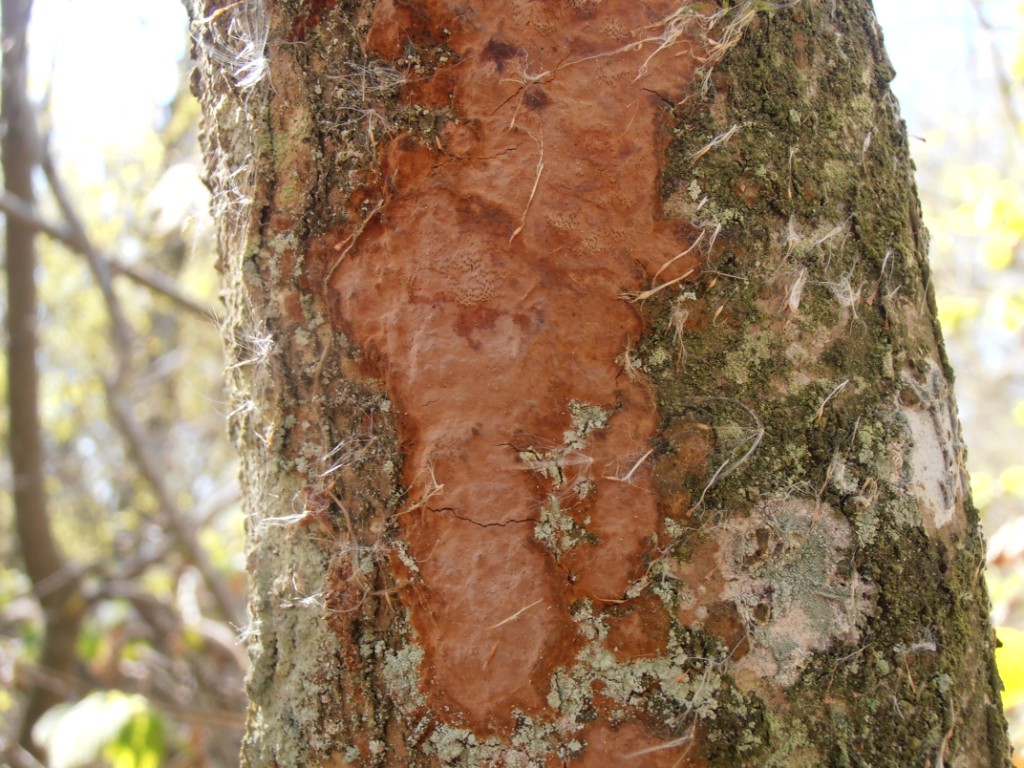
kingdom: Fungi
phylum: Basidiomycota
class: Agaricomycetes
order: Hymenochaetales
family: Hymenochaetaceae
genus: Fuscoporia
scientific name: Fuscoporia ferrea
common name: skorpe-ildporesvamp
